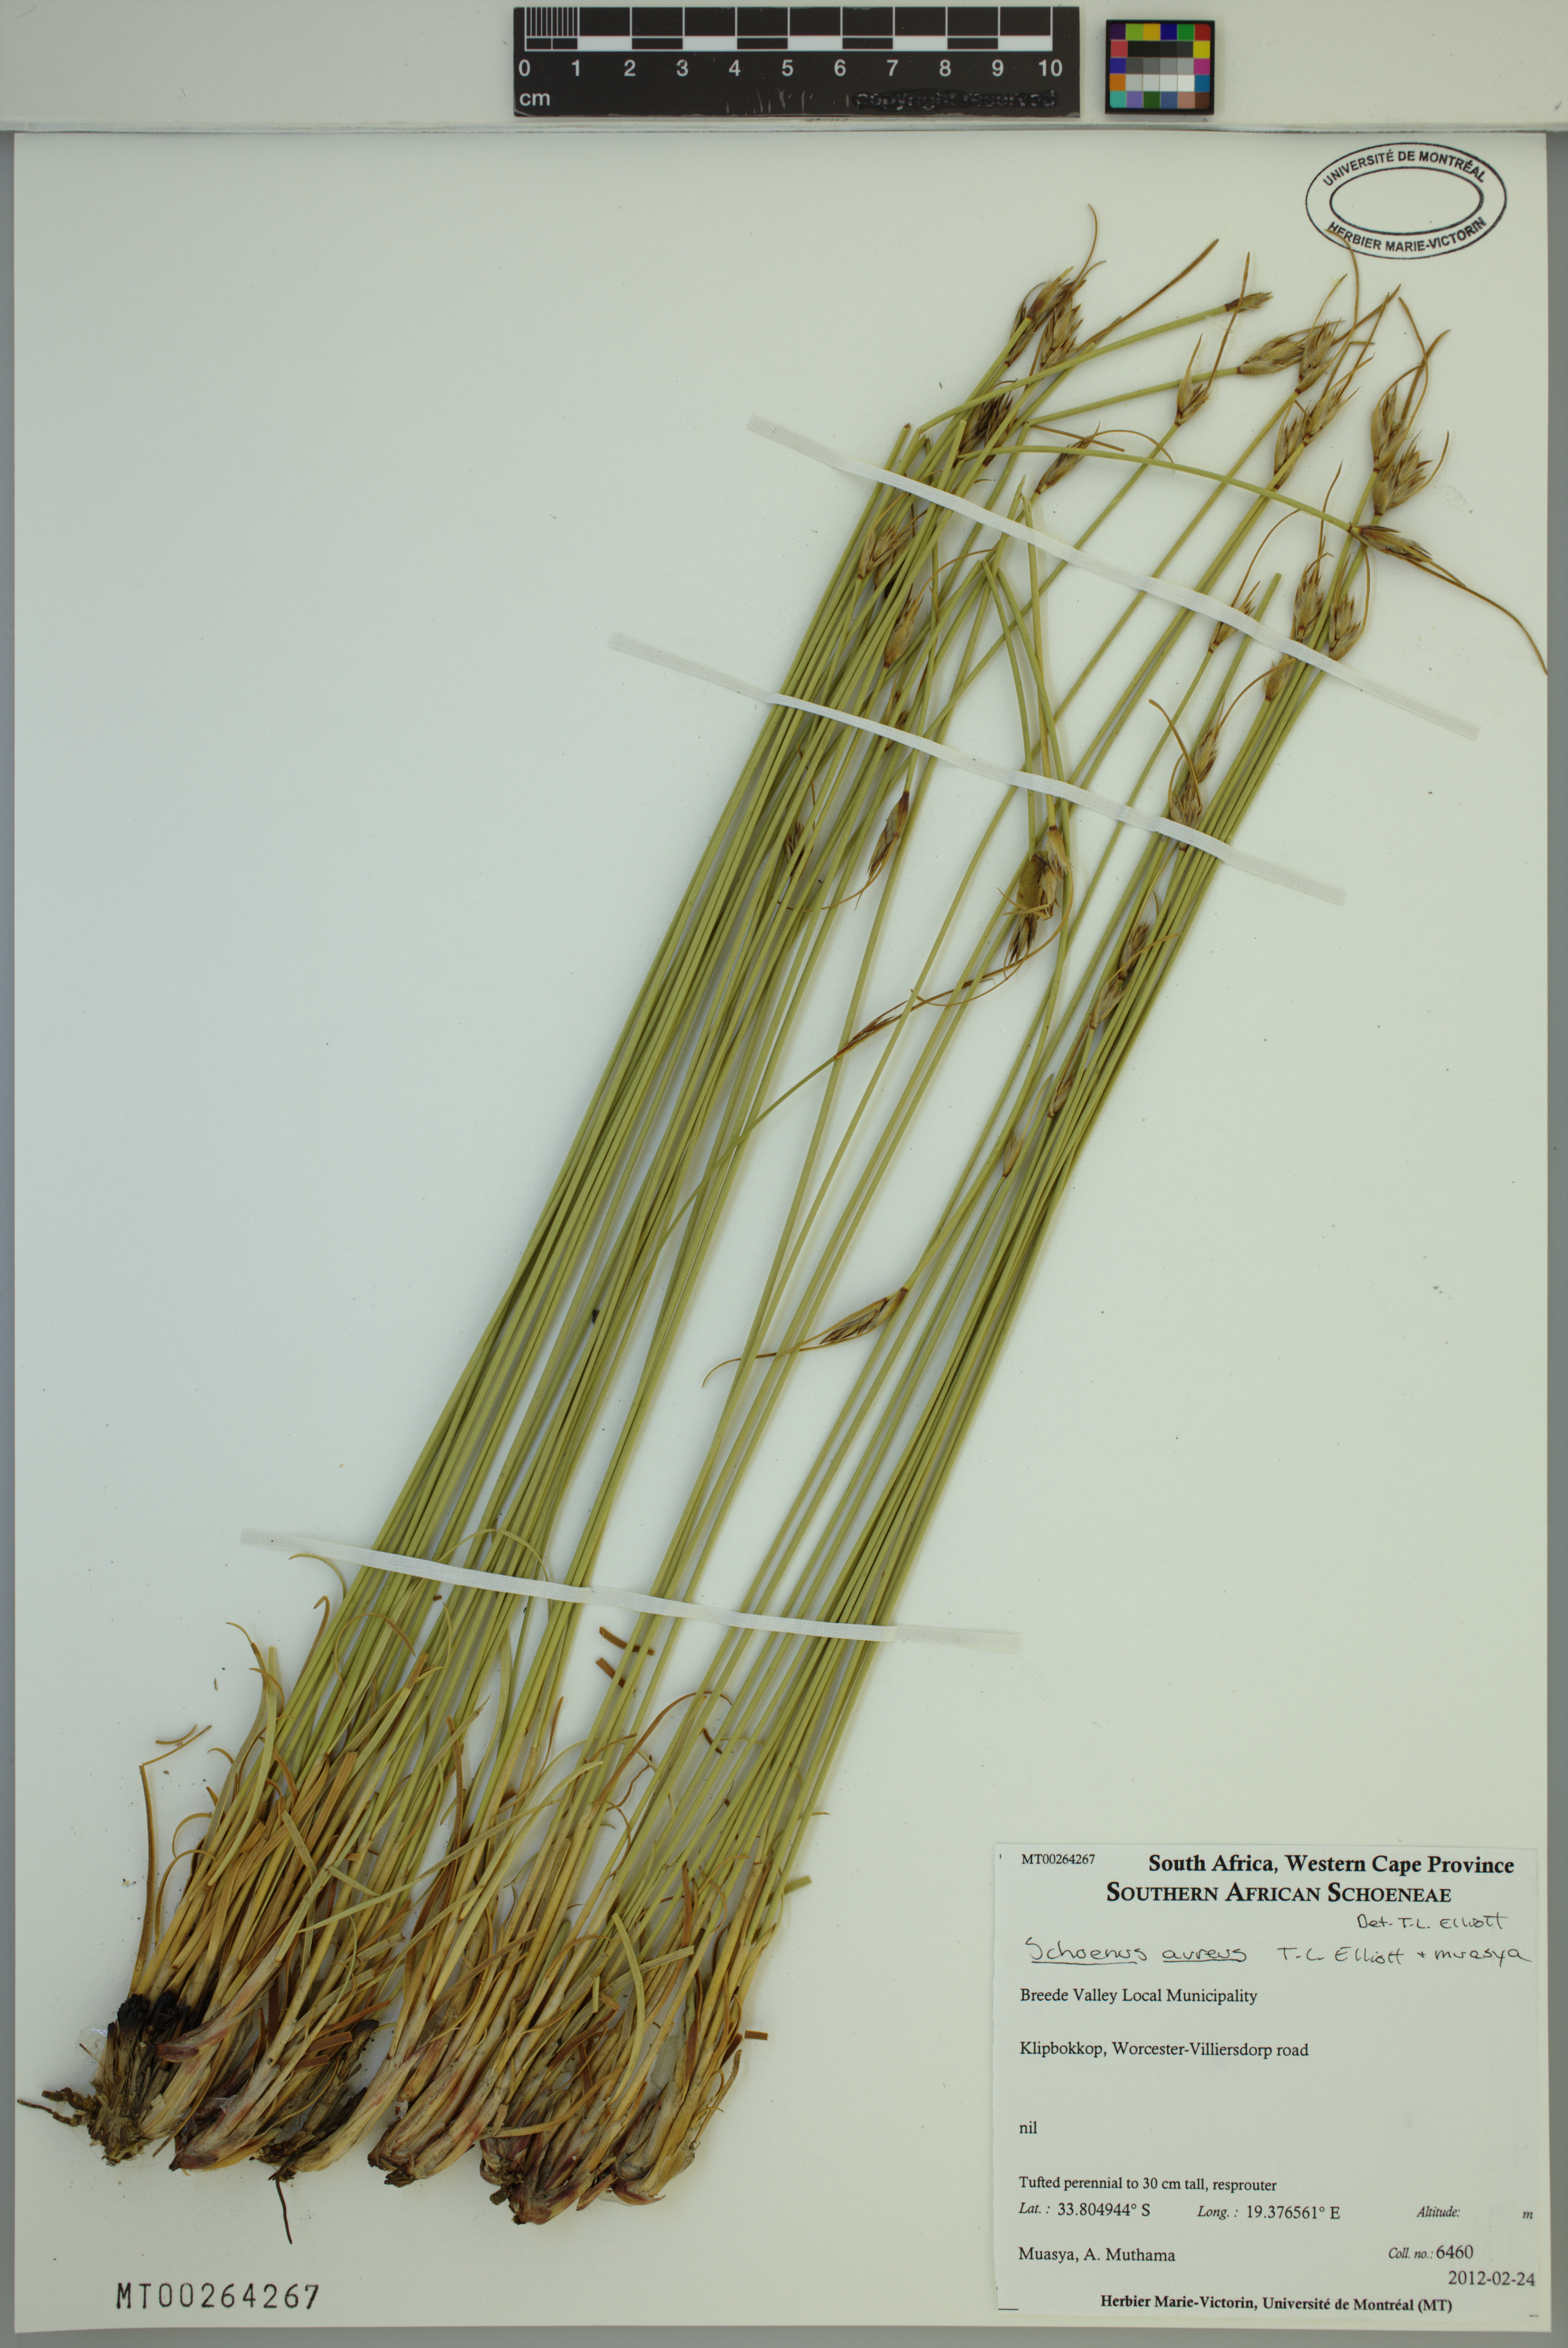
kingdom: Plantae
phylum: Tracheophyta
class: Liliopsida
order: Poales
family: Cyperaceae
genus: Schoenus
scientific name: Schoenus aureus
